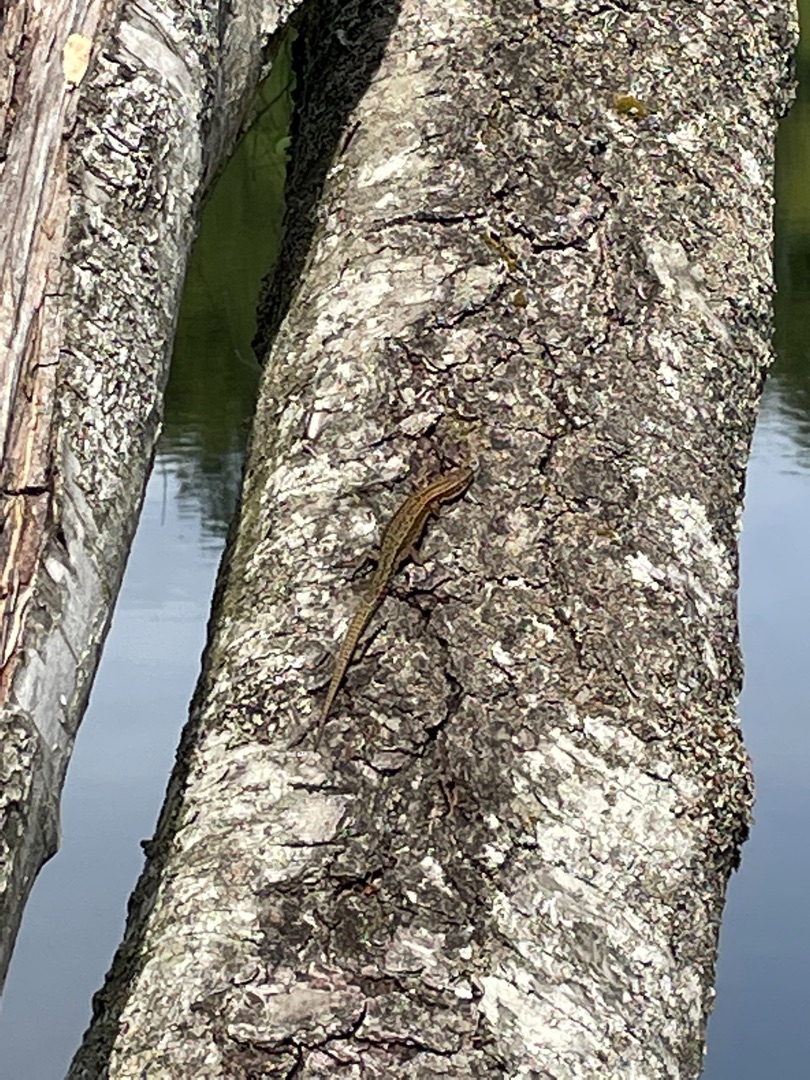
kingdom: Animalia
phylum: Chordata
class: Squamata
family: Lacertidae
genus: Zootoca
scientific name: Zootoca vivipara
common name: Skovfirben
